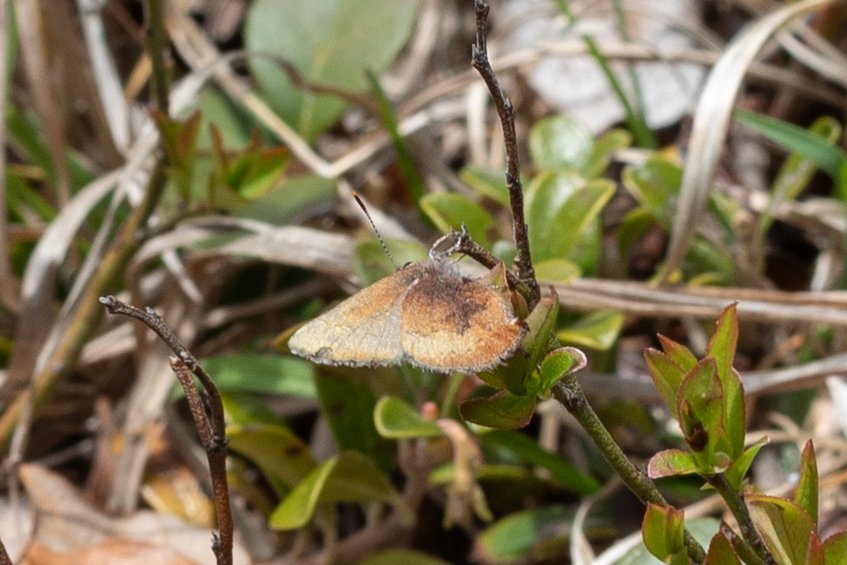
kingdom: Animalia
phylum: Arthropoda
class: Insecta
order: Lepidoptera
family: Lycaenidae
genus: Incisalia
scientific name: Incisalia irioides
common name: Brown Elfin
